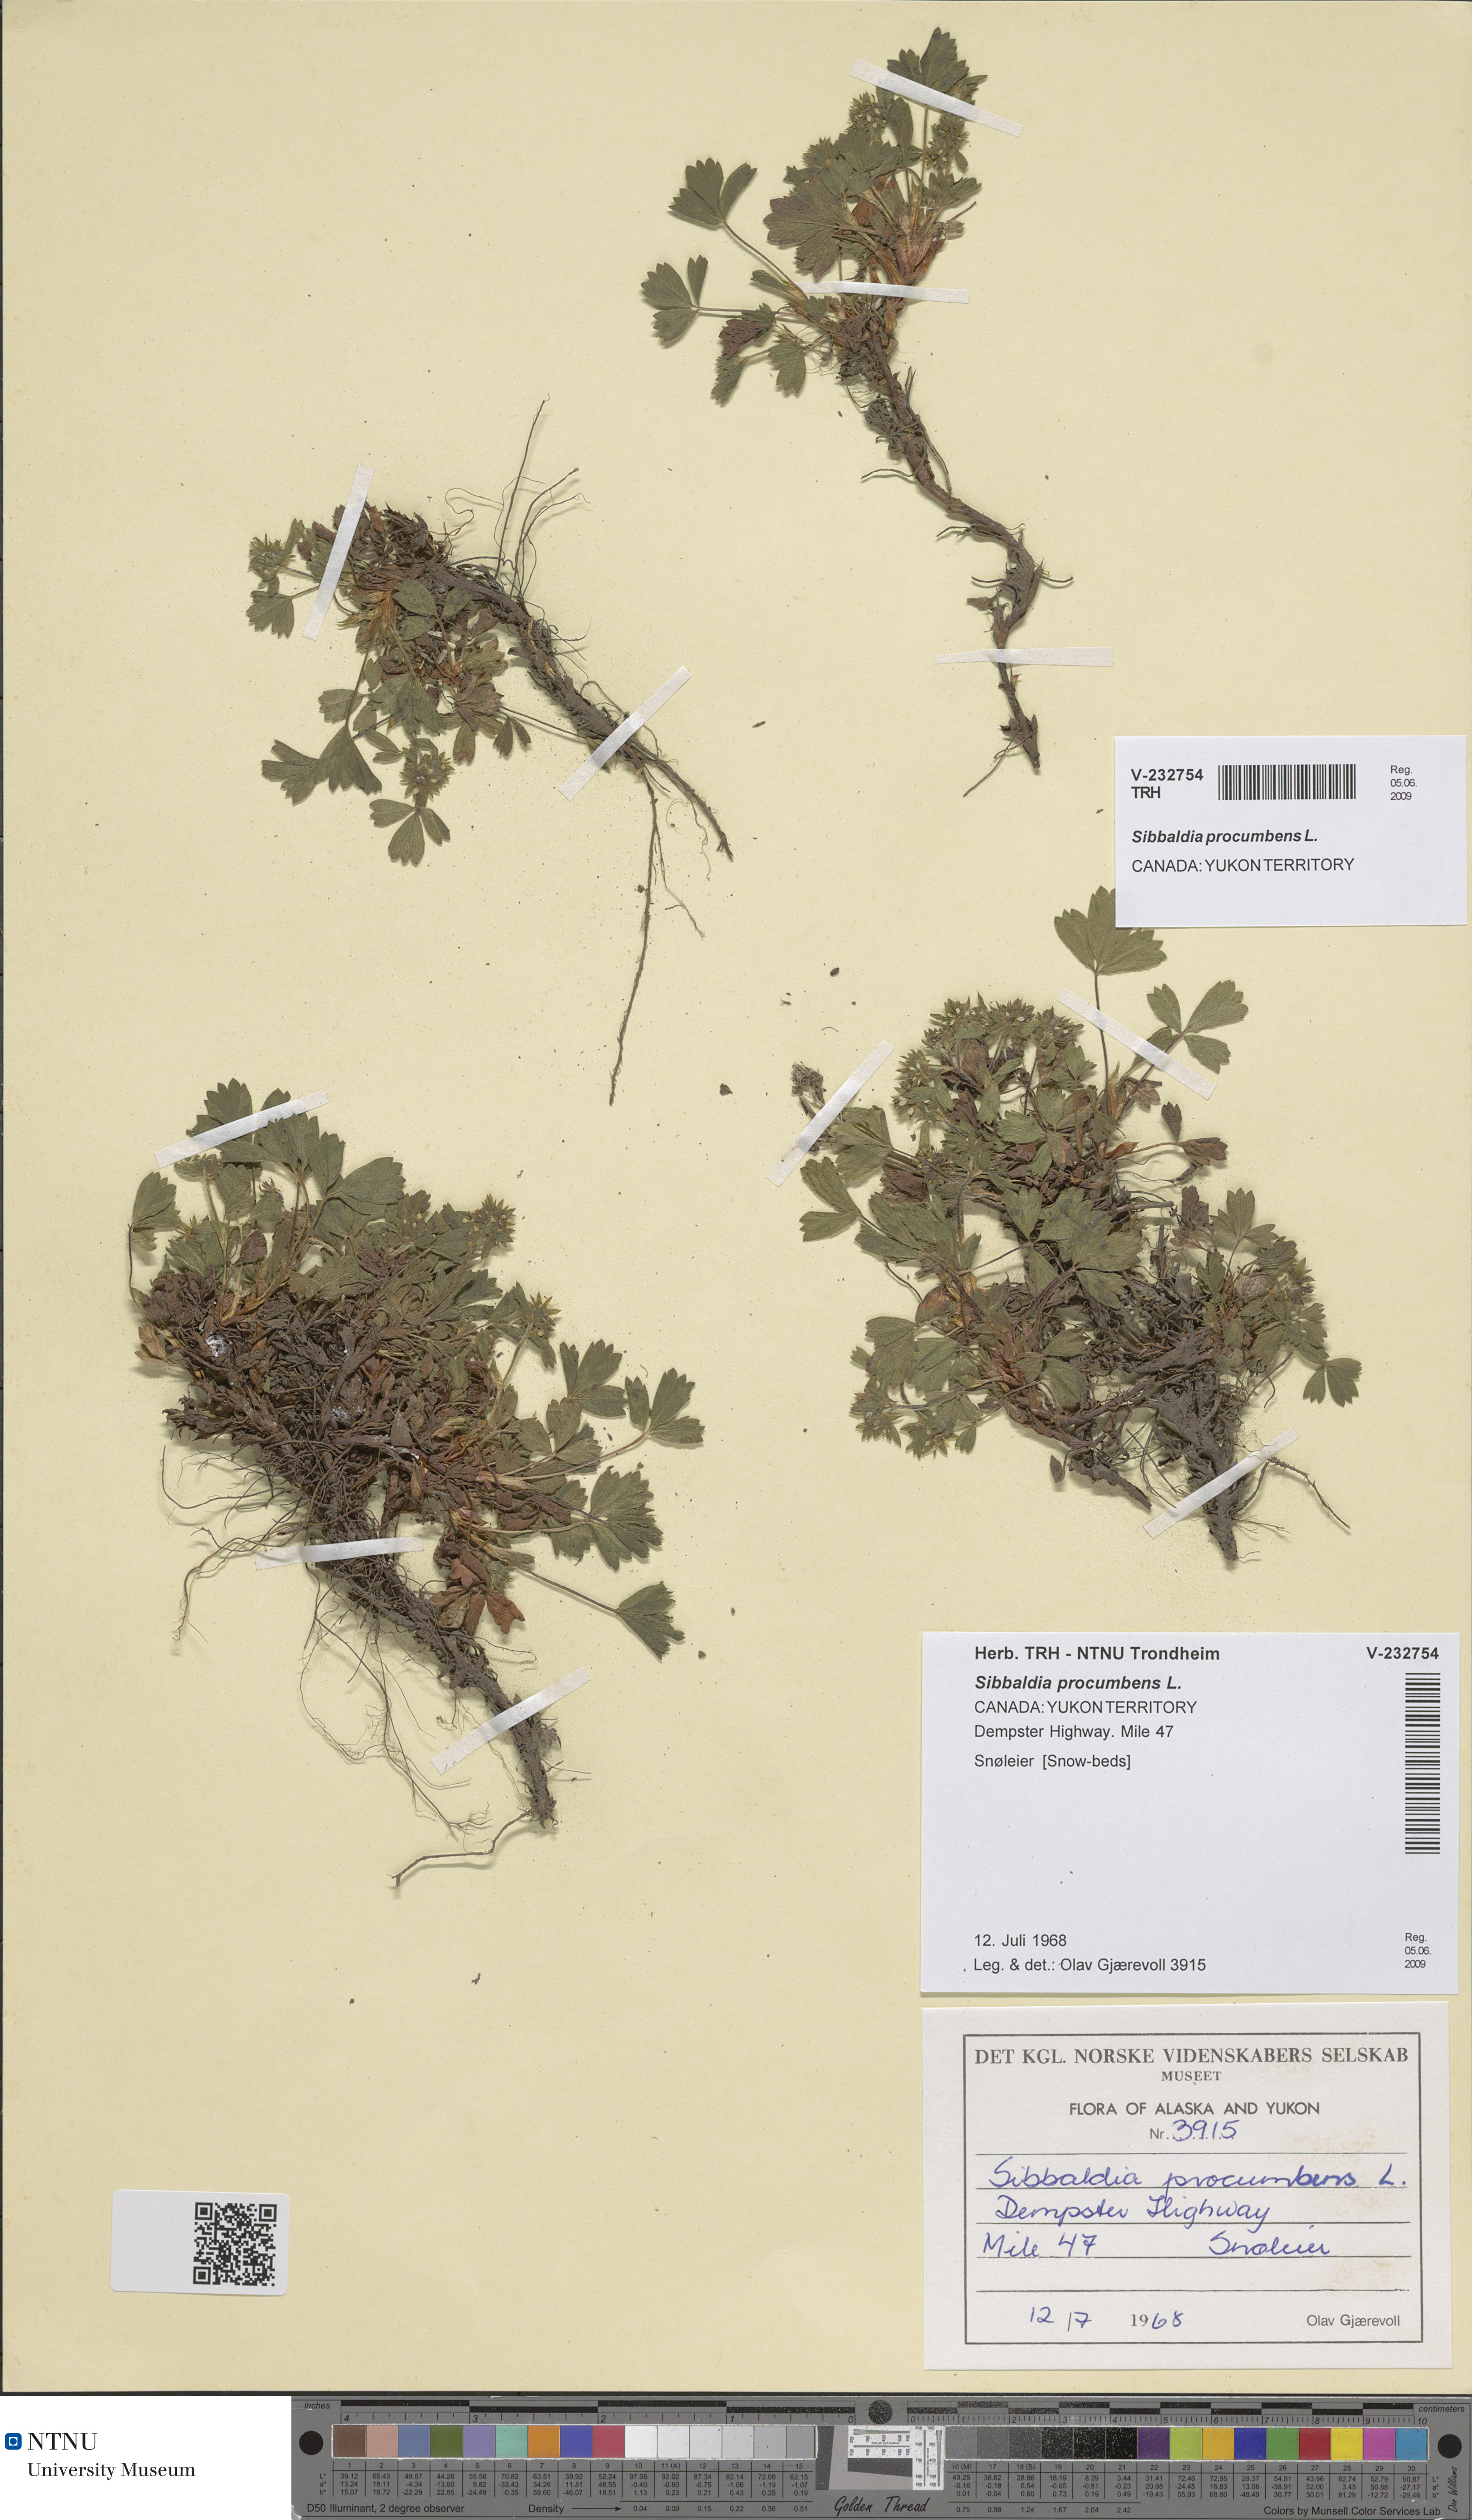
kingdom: Plantae
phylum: Tracheophyta
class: Magnoliopsida
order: Rosales
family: Rosaceae
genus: Sibbaldia
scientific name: Sibbaldia procumbens
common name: Creeping sibbaldia
